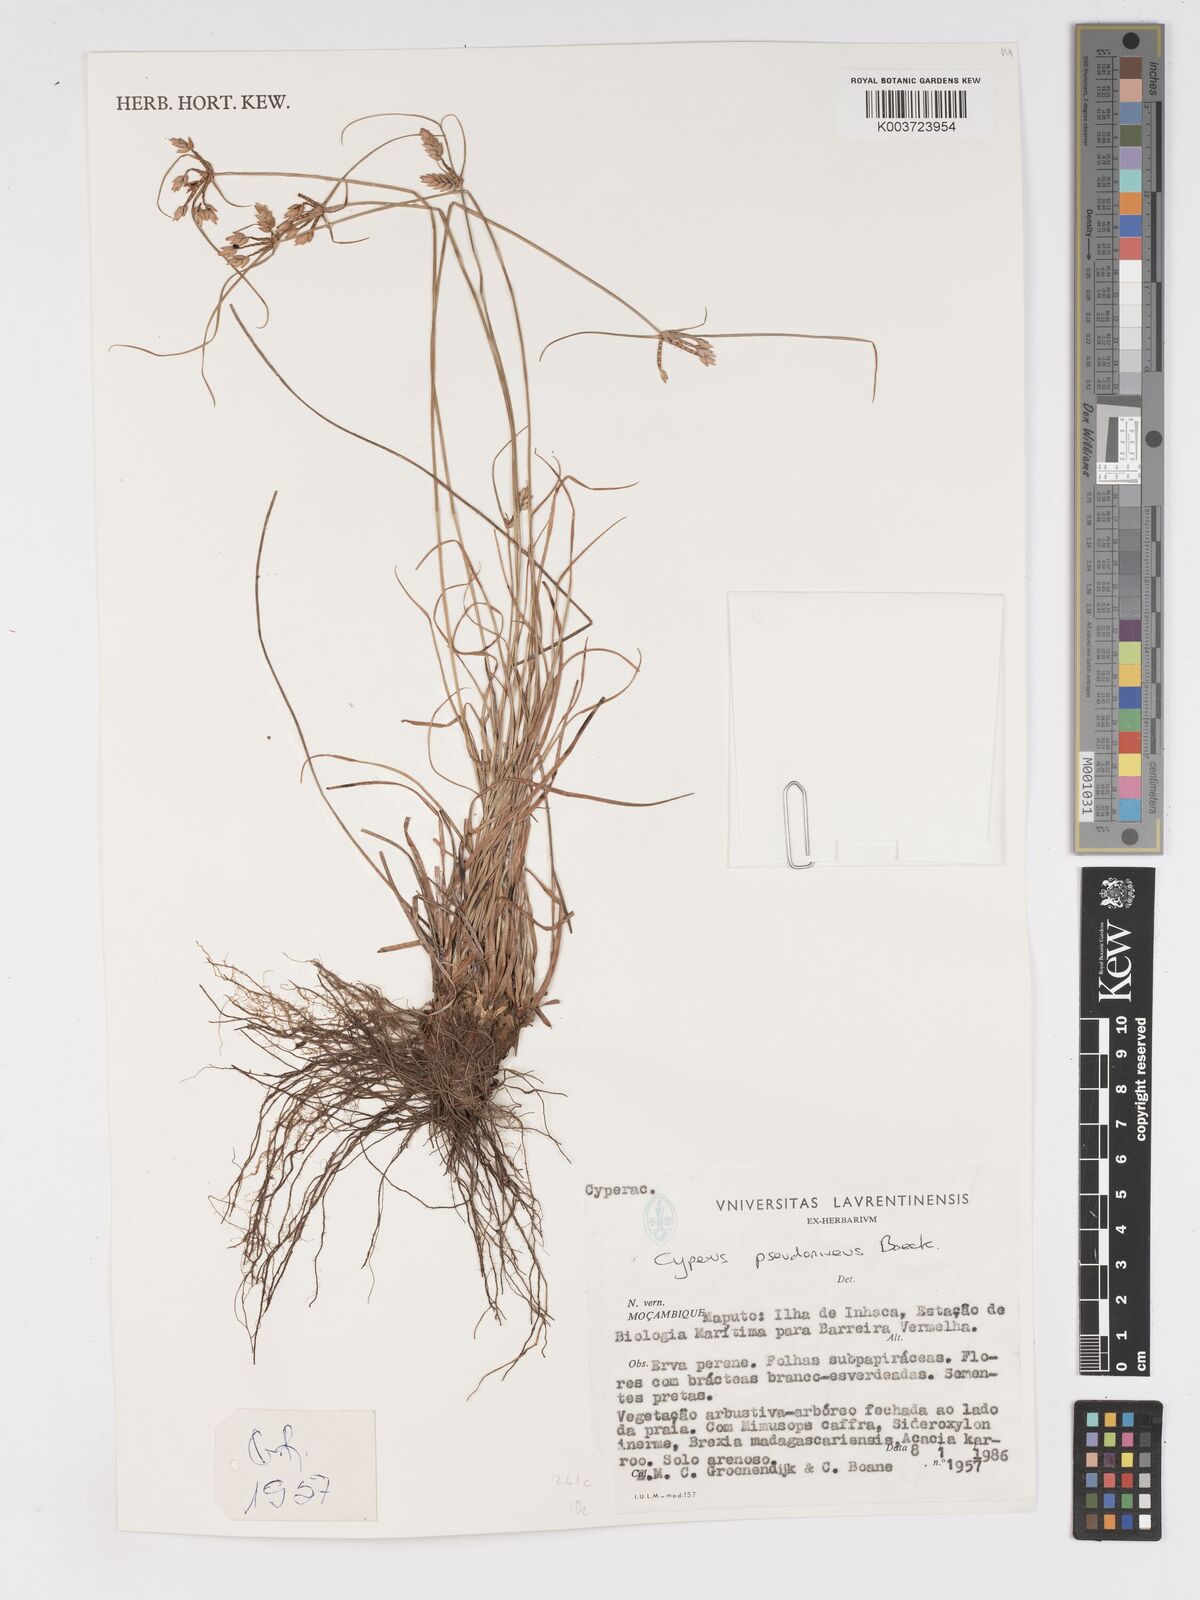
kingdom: Plantae
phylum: Tracheophyta
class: Liliopsida
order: Poales
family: Cyperaceae
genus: Cyperus
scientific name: Cyperus margaritaceus
